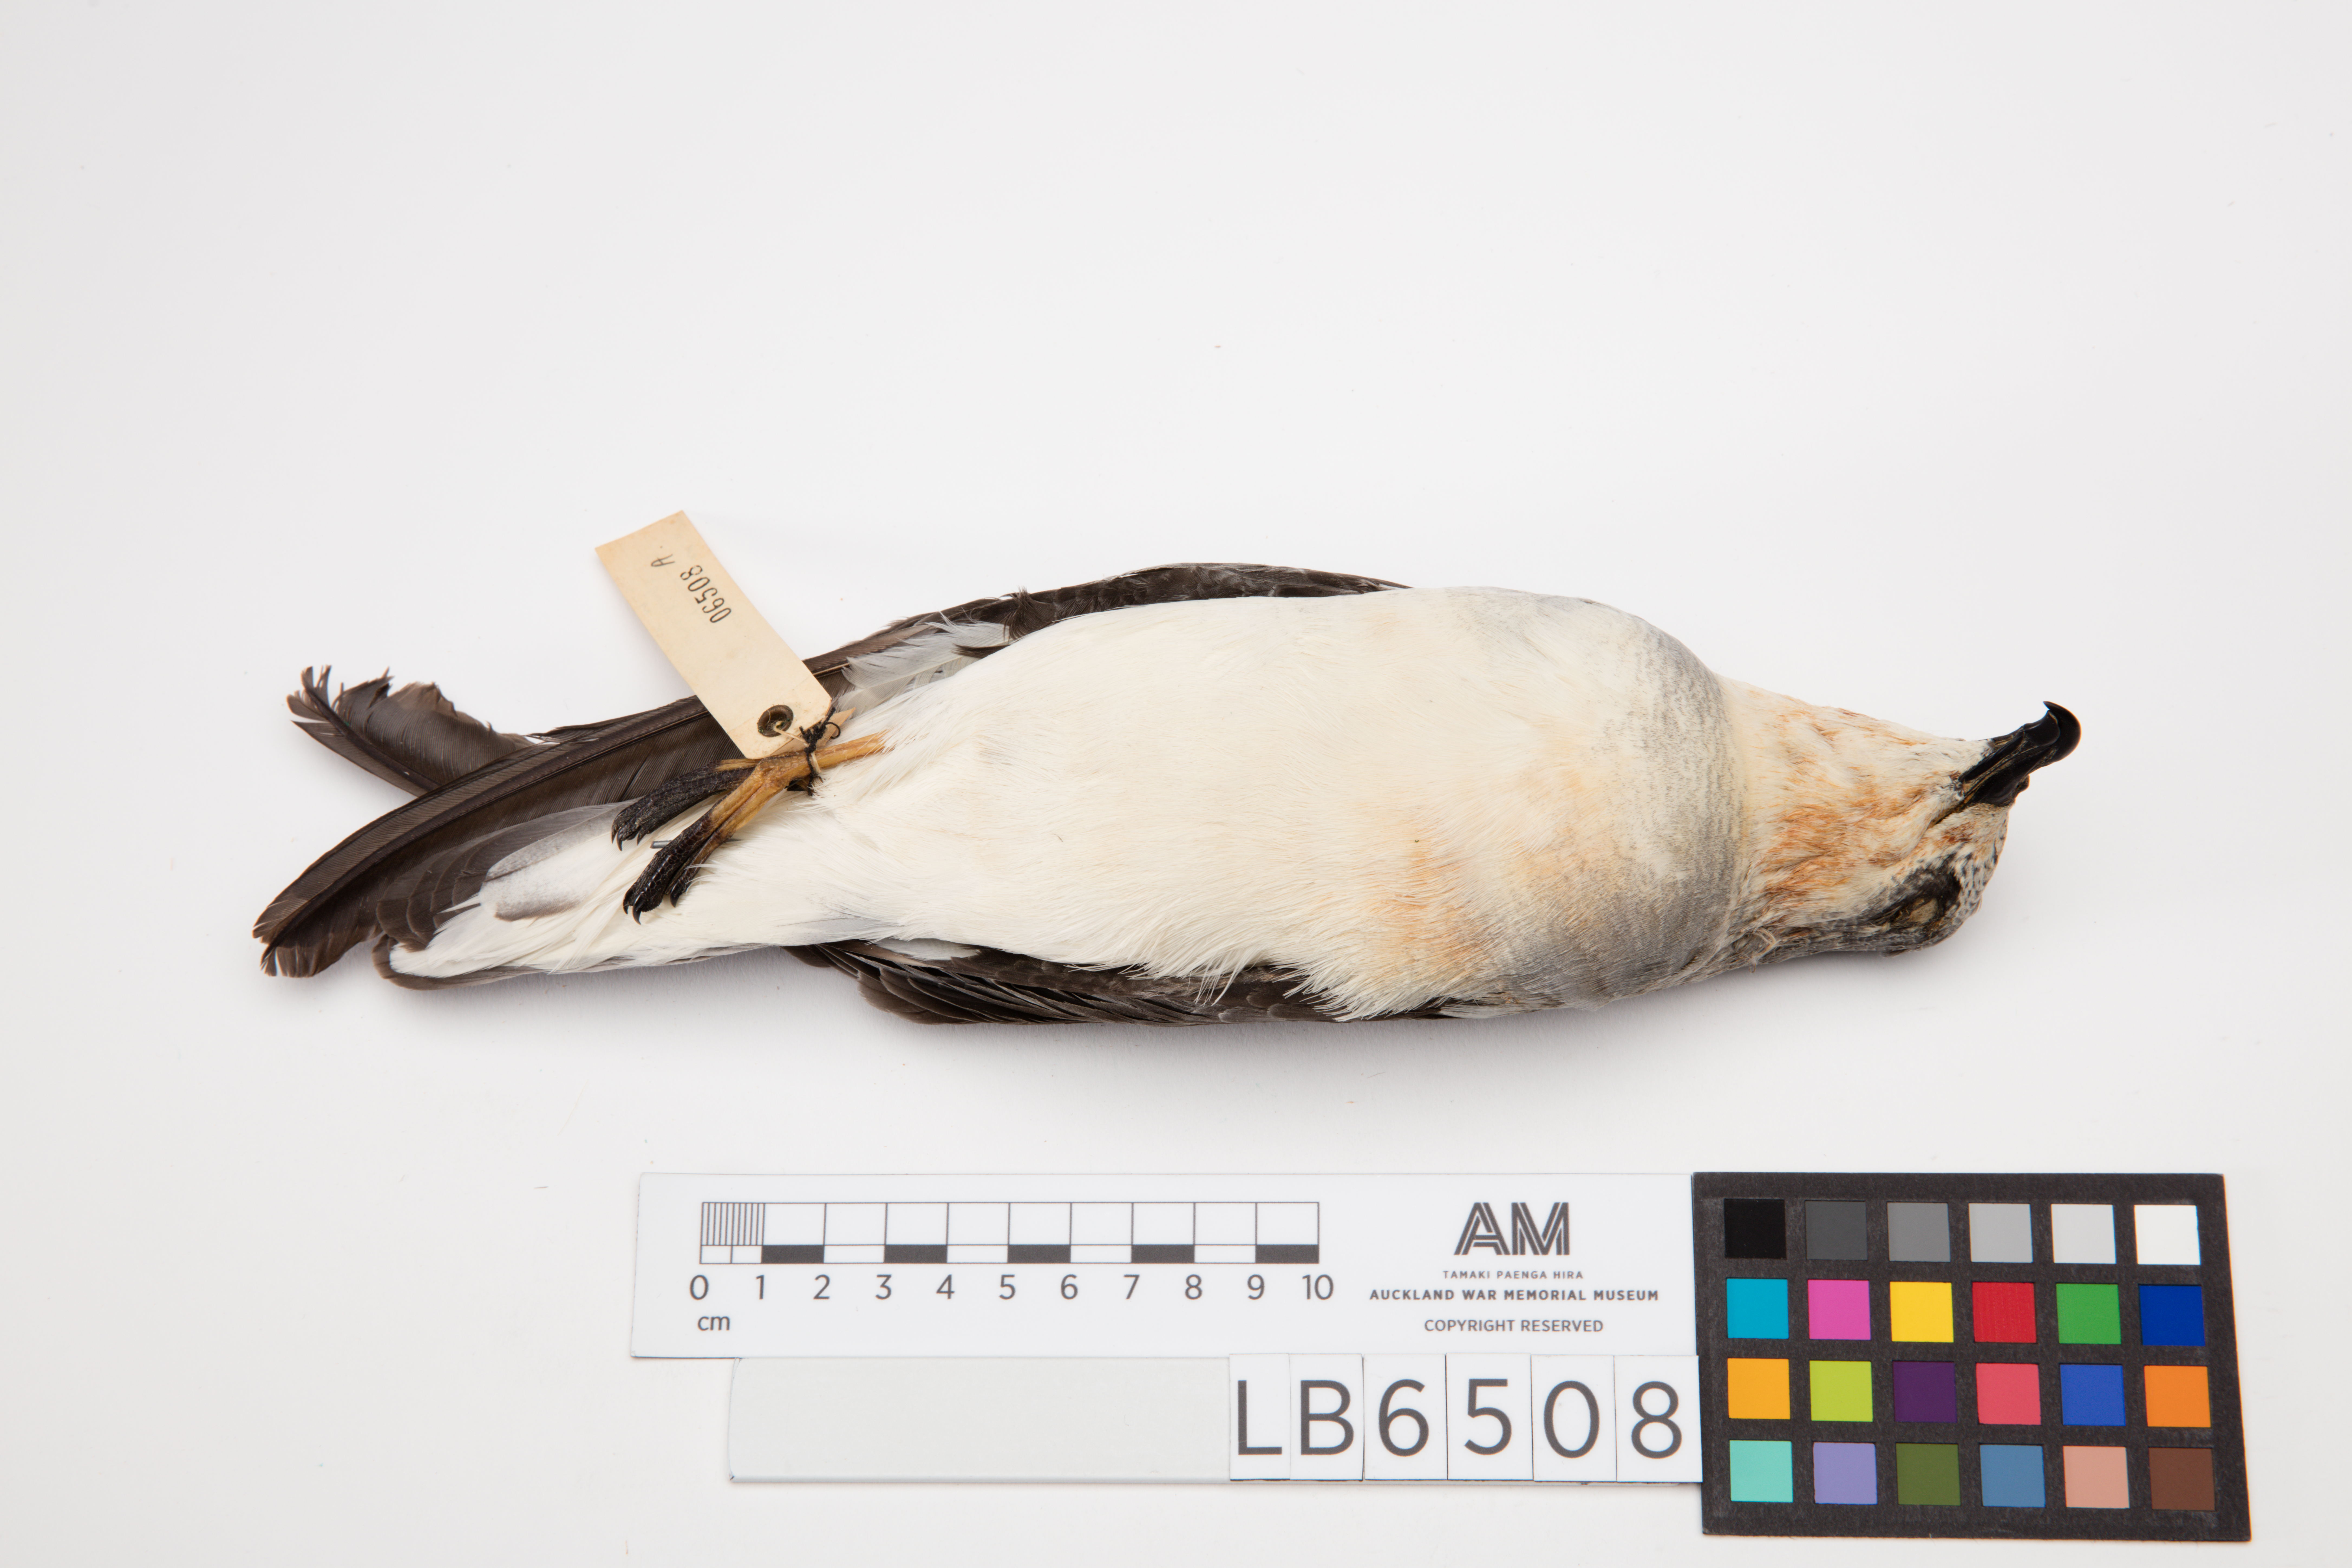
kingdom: Animalia
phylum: Chordata
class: Aves
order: Procellariiformes
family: Procellariidae
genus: Pterodroma
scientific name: Pterodroma nigripennis
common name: Black-winged petrel
